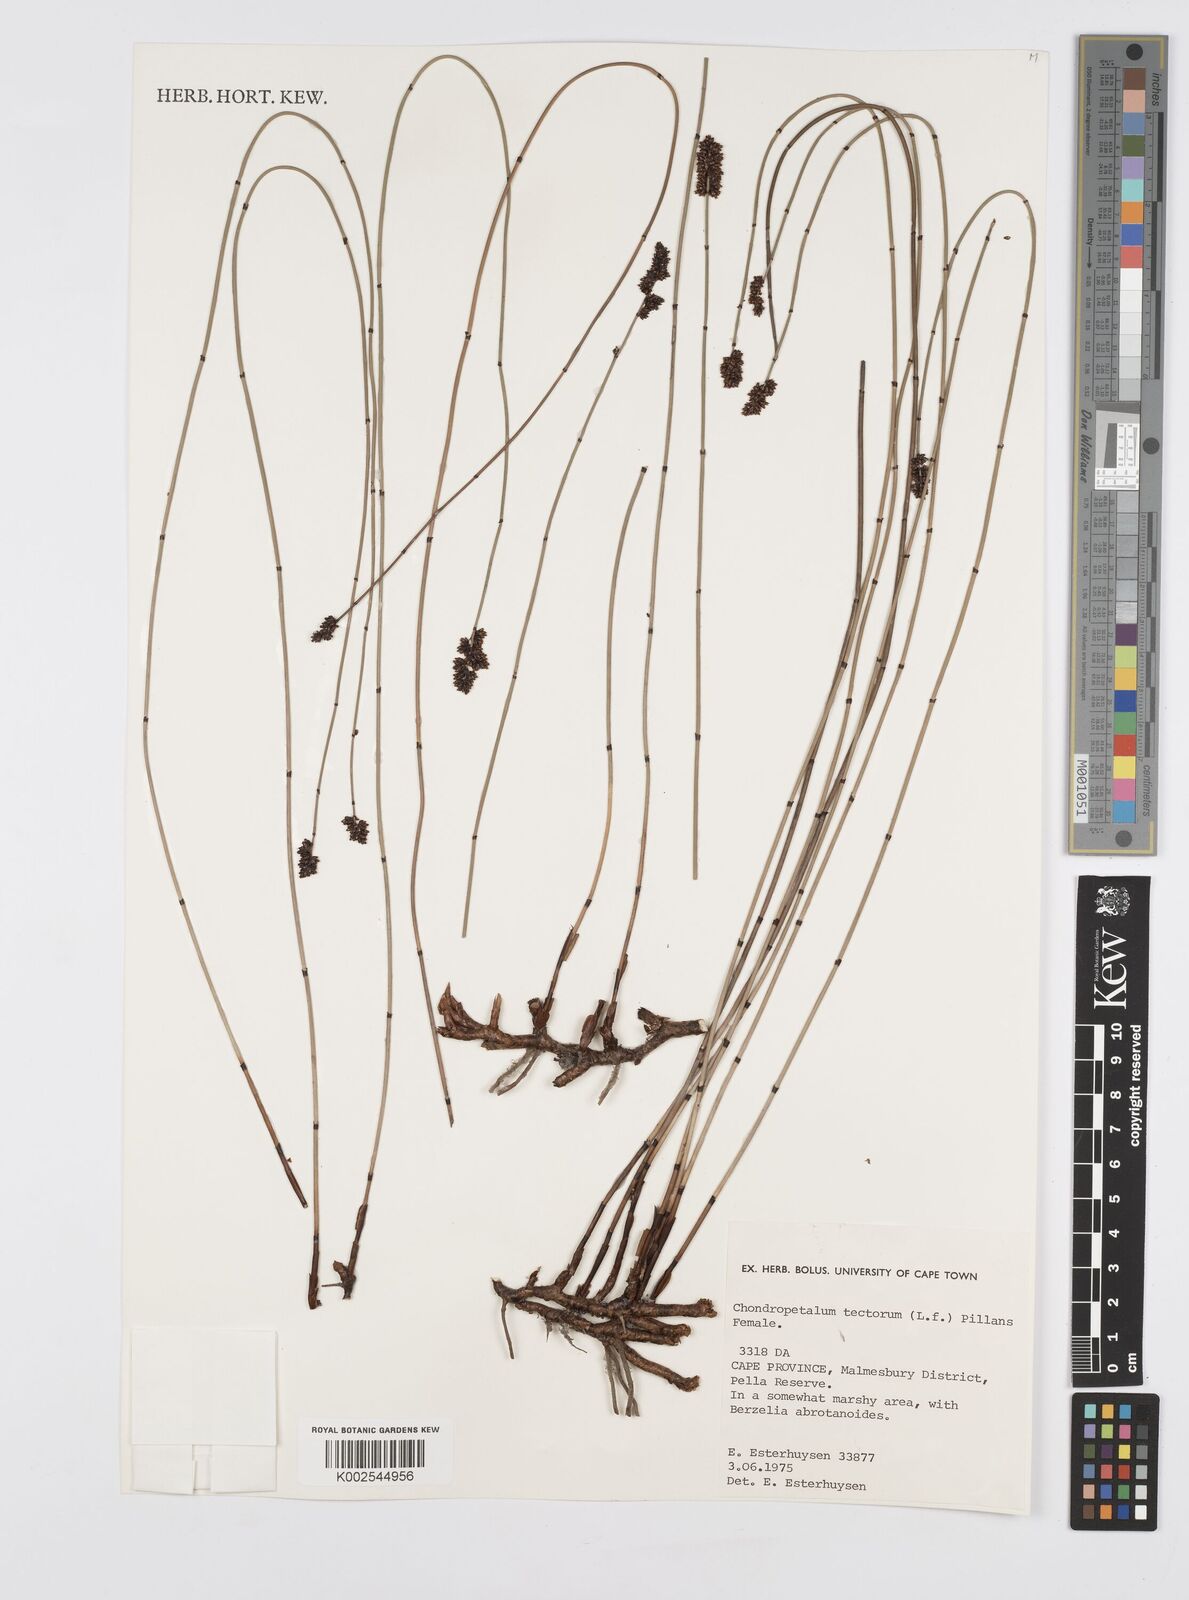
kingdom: Plantae
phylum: Tracheophyta
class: Liliopsida
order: Poales
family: Restionaceae
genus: Elegia
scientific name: Elegia tectorum
